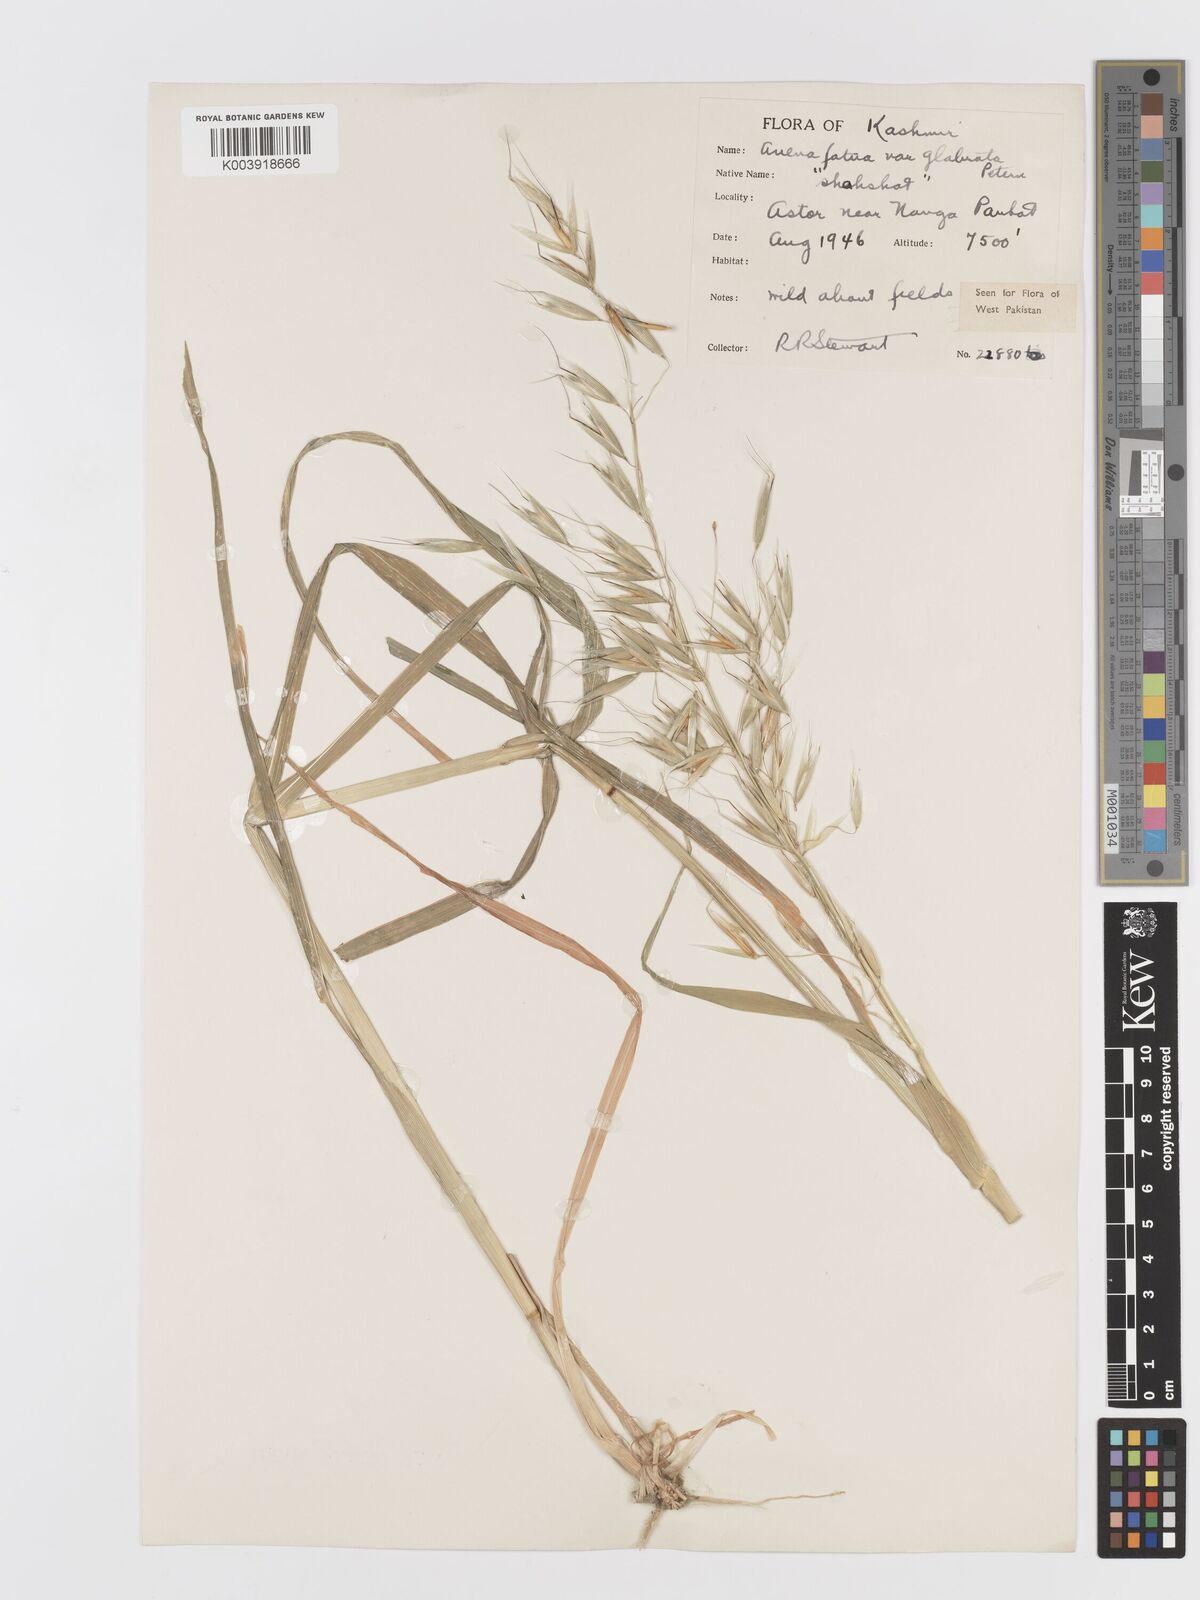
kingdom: Plantae
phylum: Tracheophyta
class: Liliopsida
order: Poales
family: Poaceae
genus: Avena
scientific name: Avena fatua
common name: Wild oat
